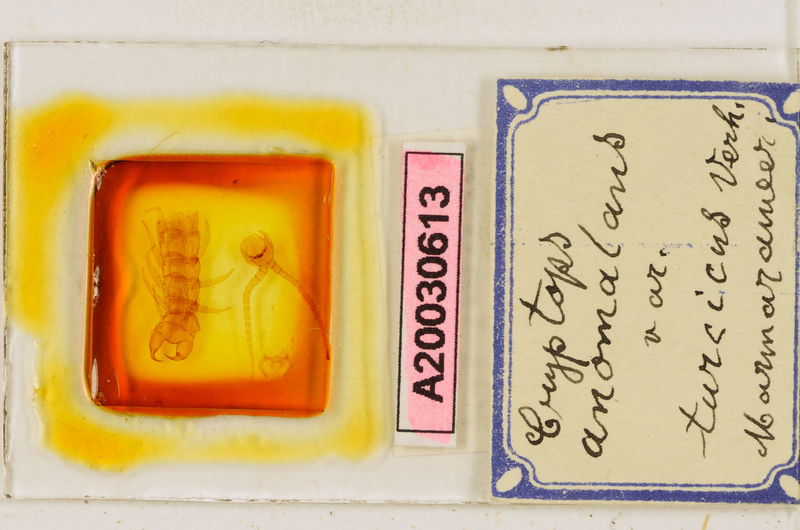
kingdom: Animalia
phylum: Arthropoda
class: Chilopoda
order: Scolopendromorpha
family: Cryptopidae
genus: Cryptops
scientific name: Cryptops anomalans
